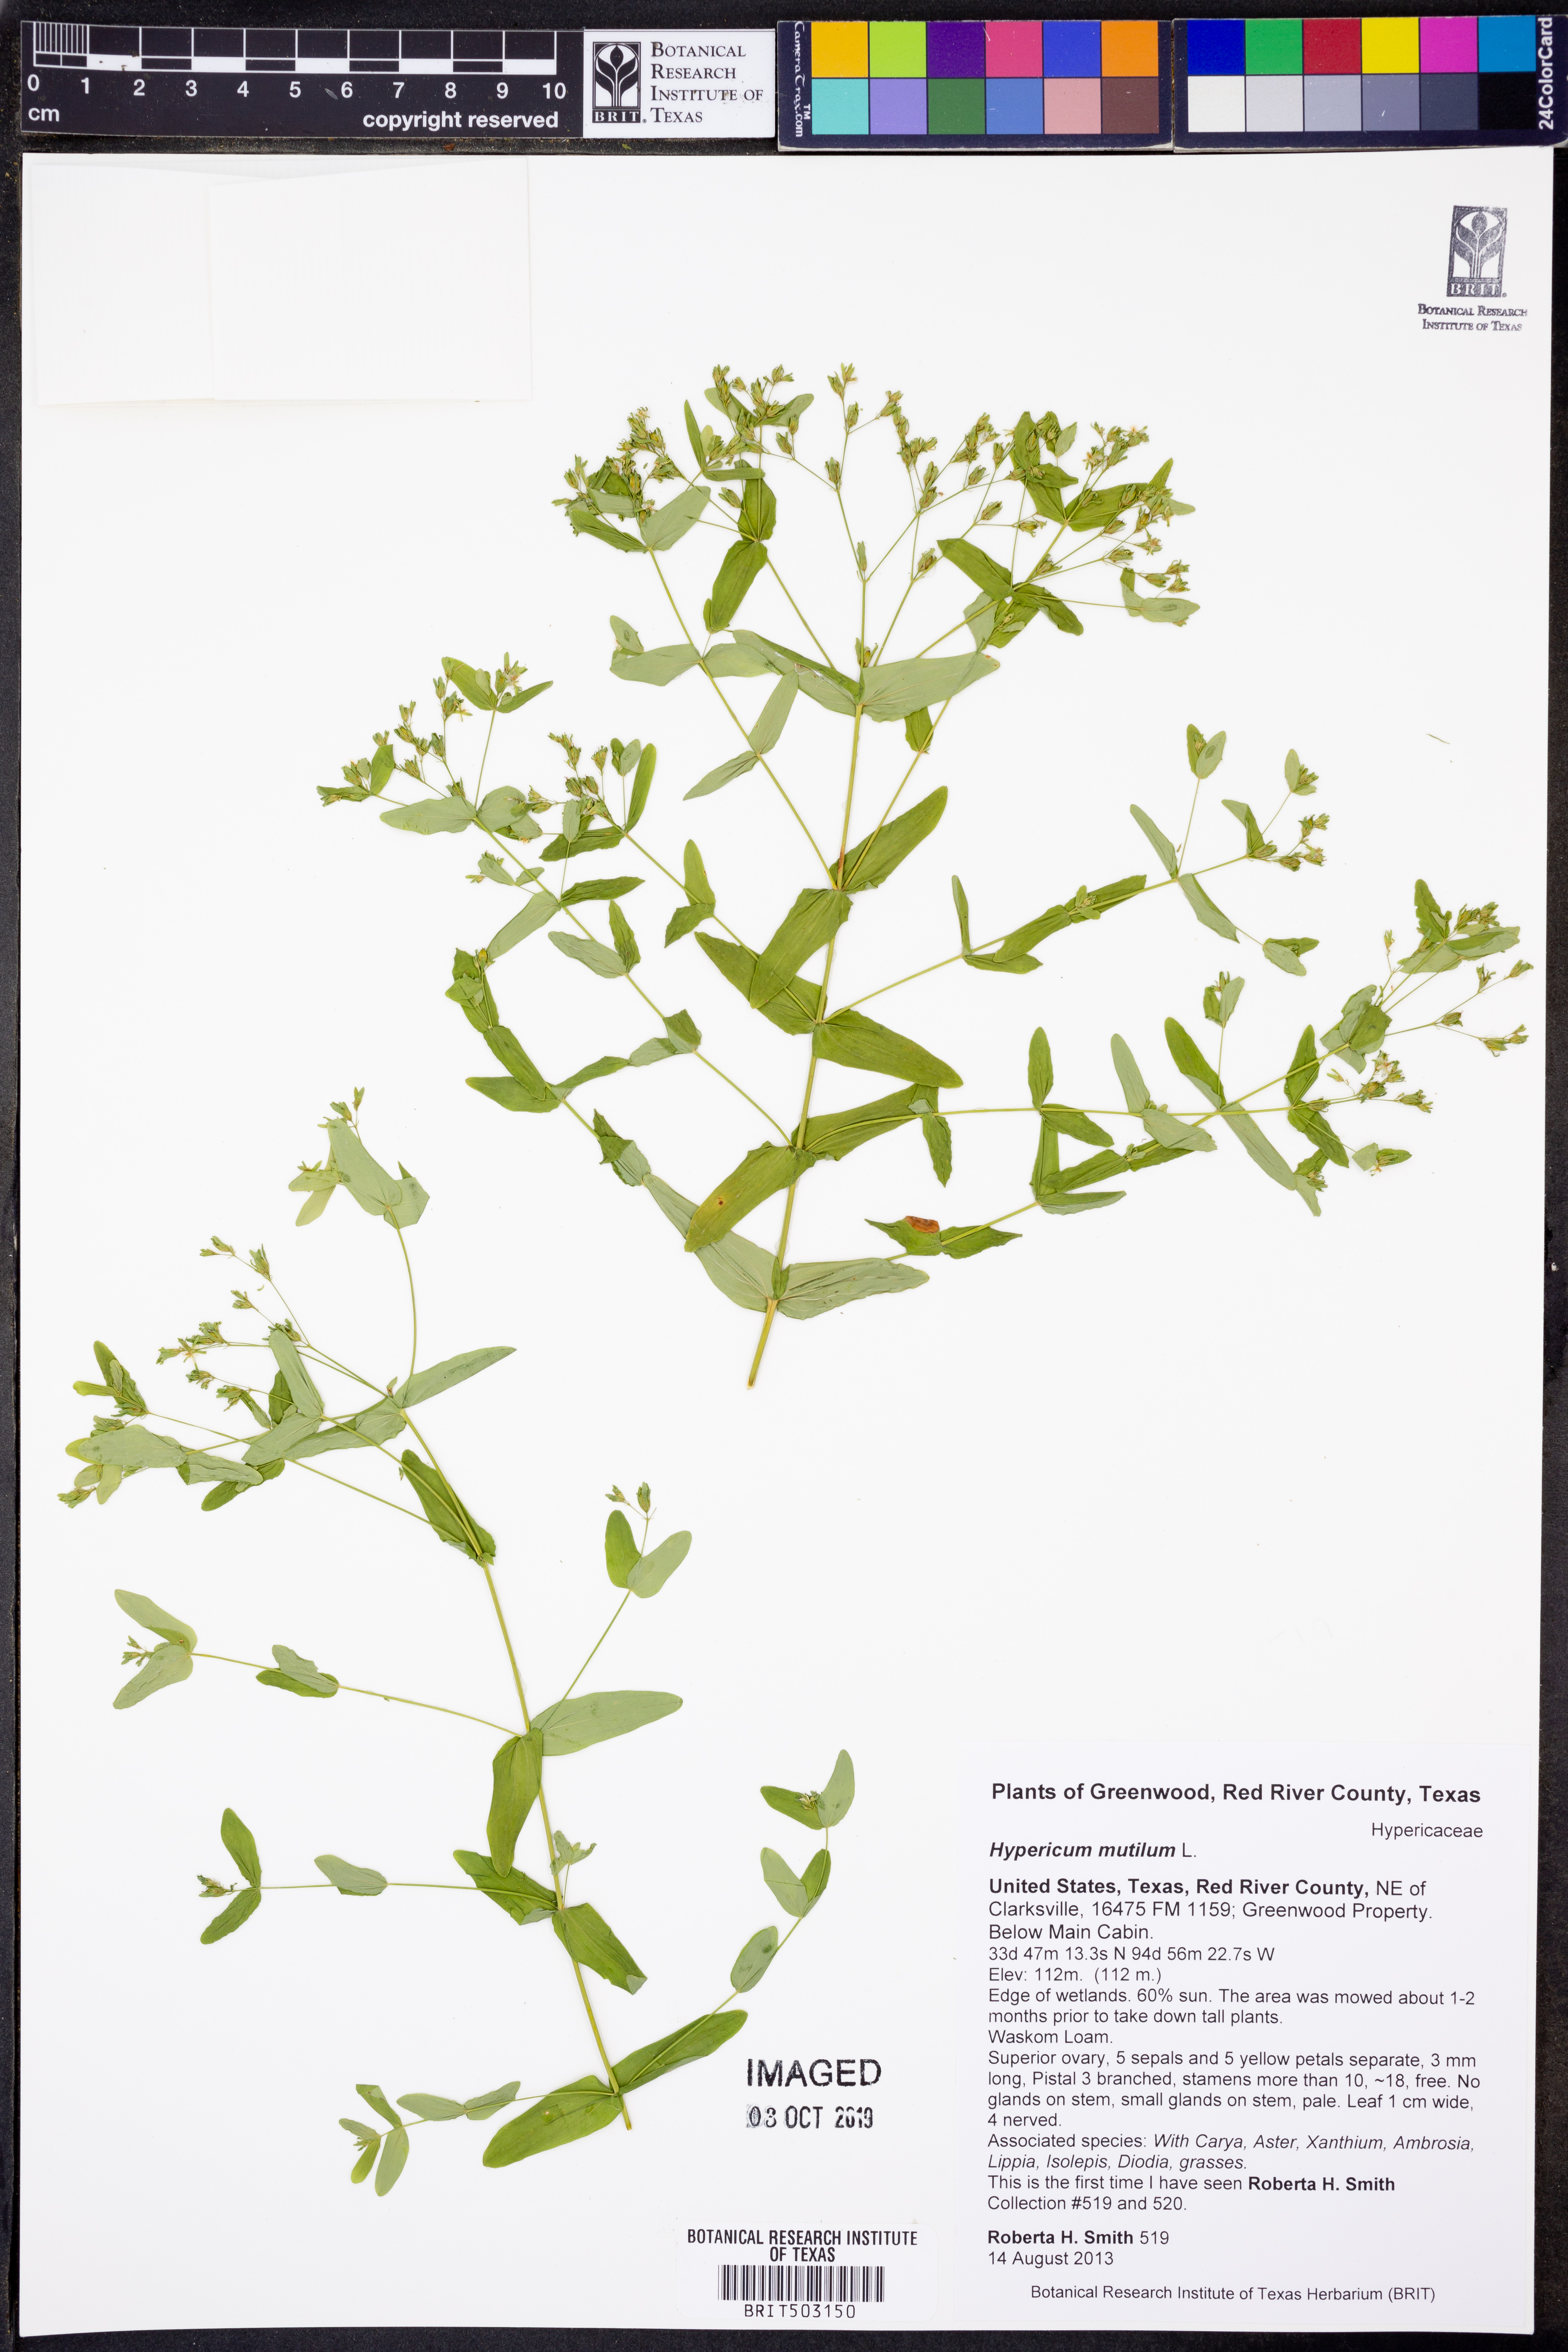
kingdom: Plantae
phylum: Tracheophyta
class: Magnoliopsida
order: Malpighiales
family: Hypericaceae
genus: Hypericum
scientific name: Hypericum mutilum
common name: Dwarf st. john's-wort
